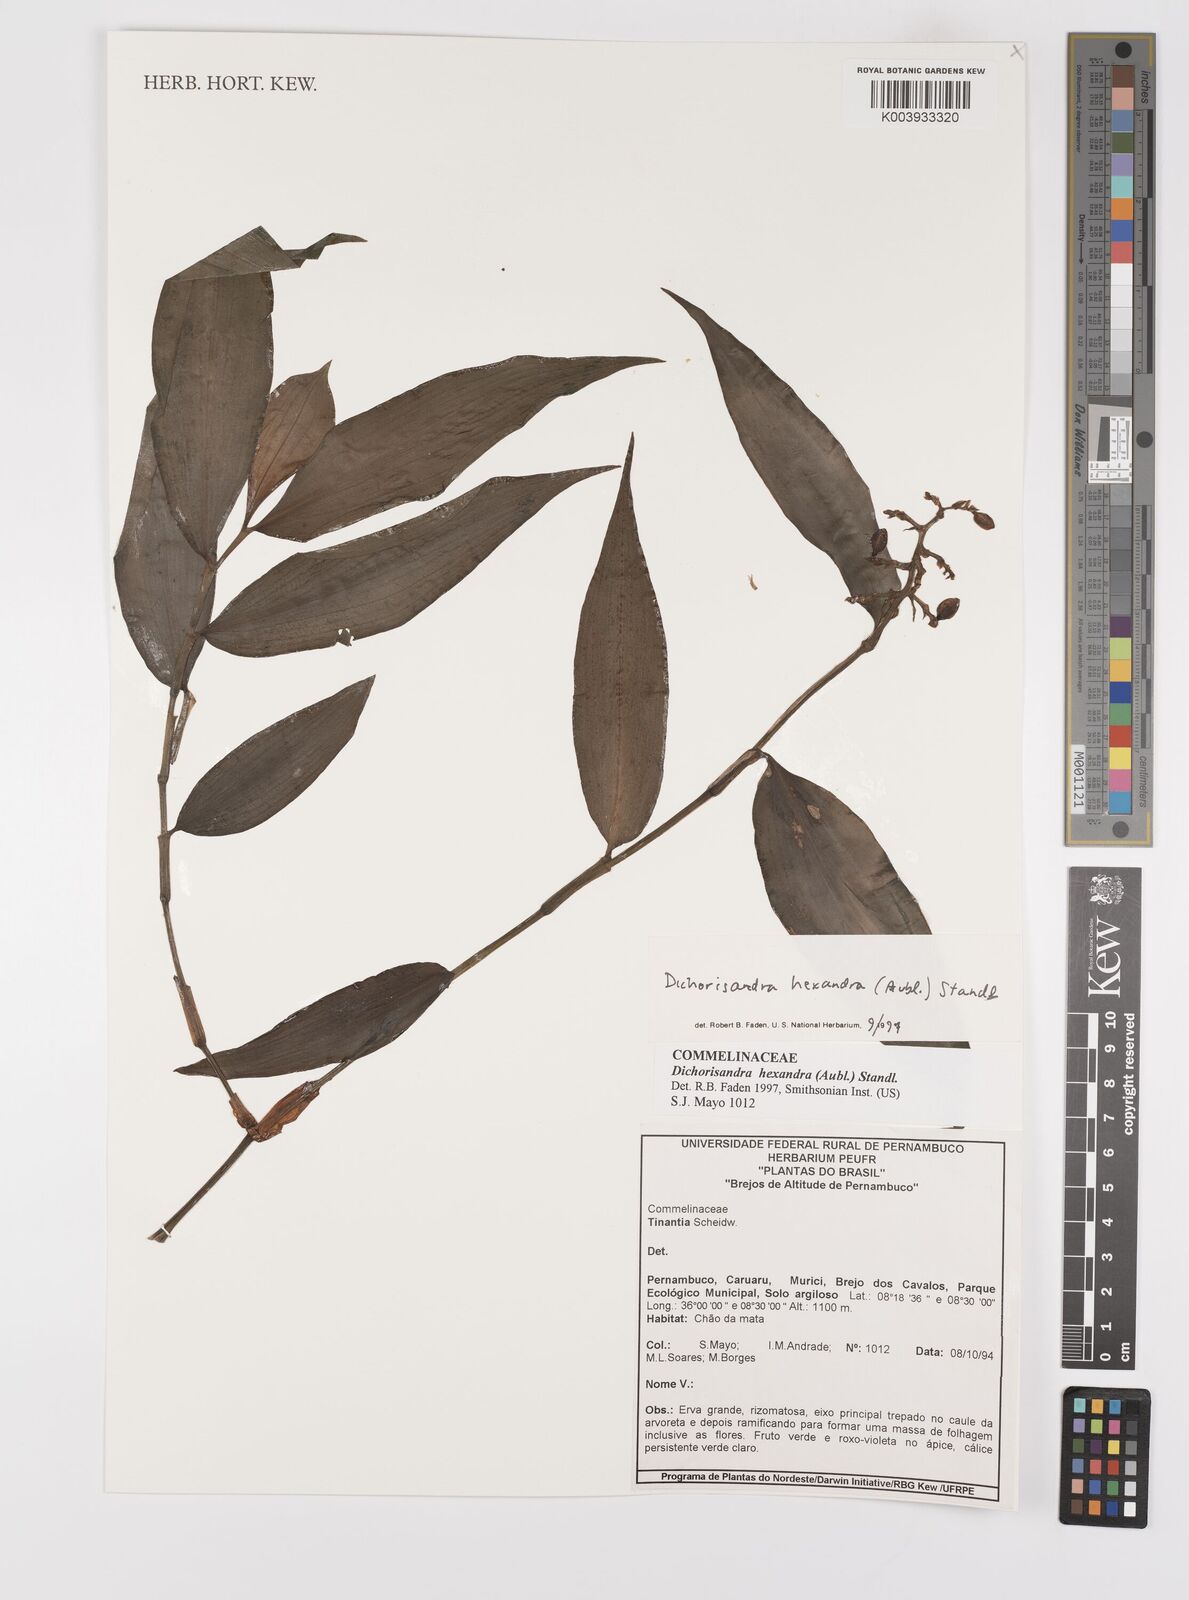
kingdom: Plantae
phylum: Tracheophyta
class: Liliopsida
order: Commelinales
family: Commelinaceae
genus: Dichorisandra
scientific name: Dichorisandra hexandra
